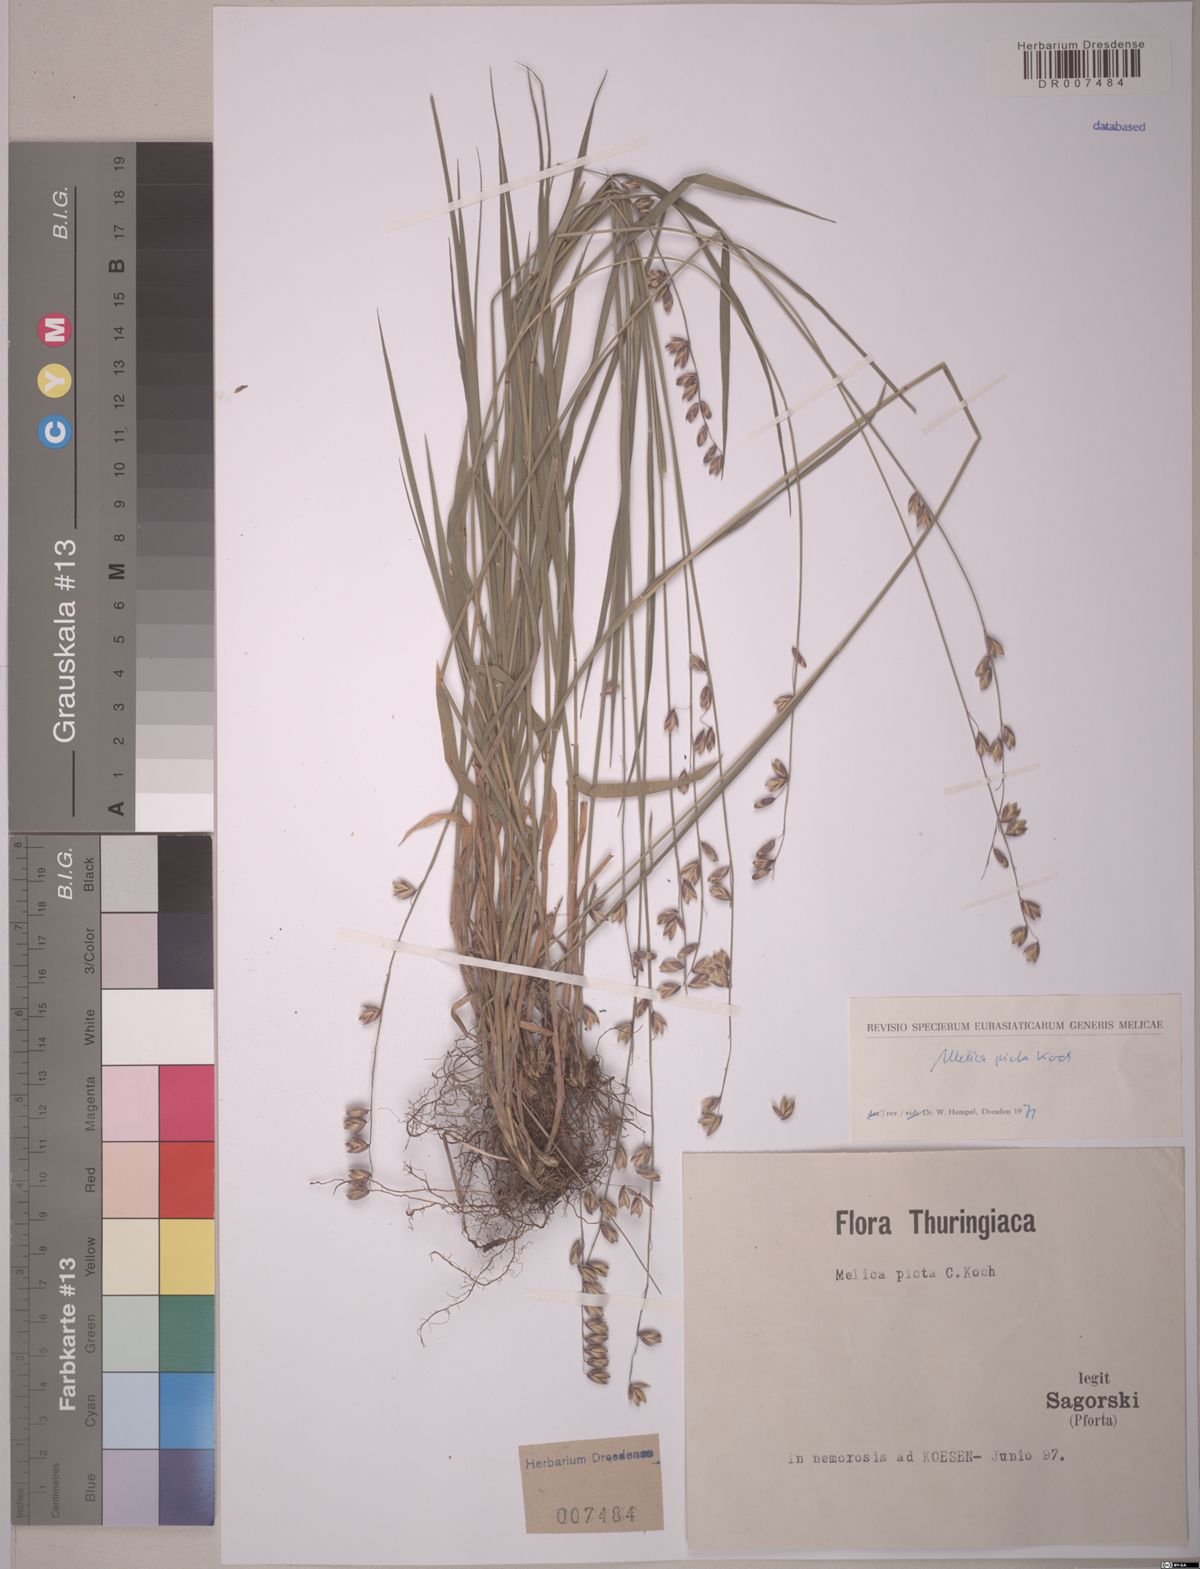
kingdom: Plantae
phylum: Tracheophyta
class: Liliopsida
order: Poales
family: Poaceae
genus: Melica
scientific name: Melica picta
